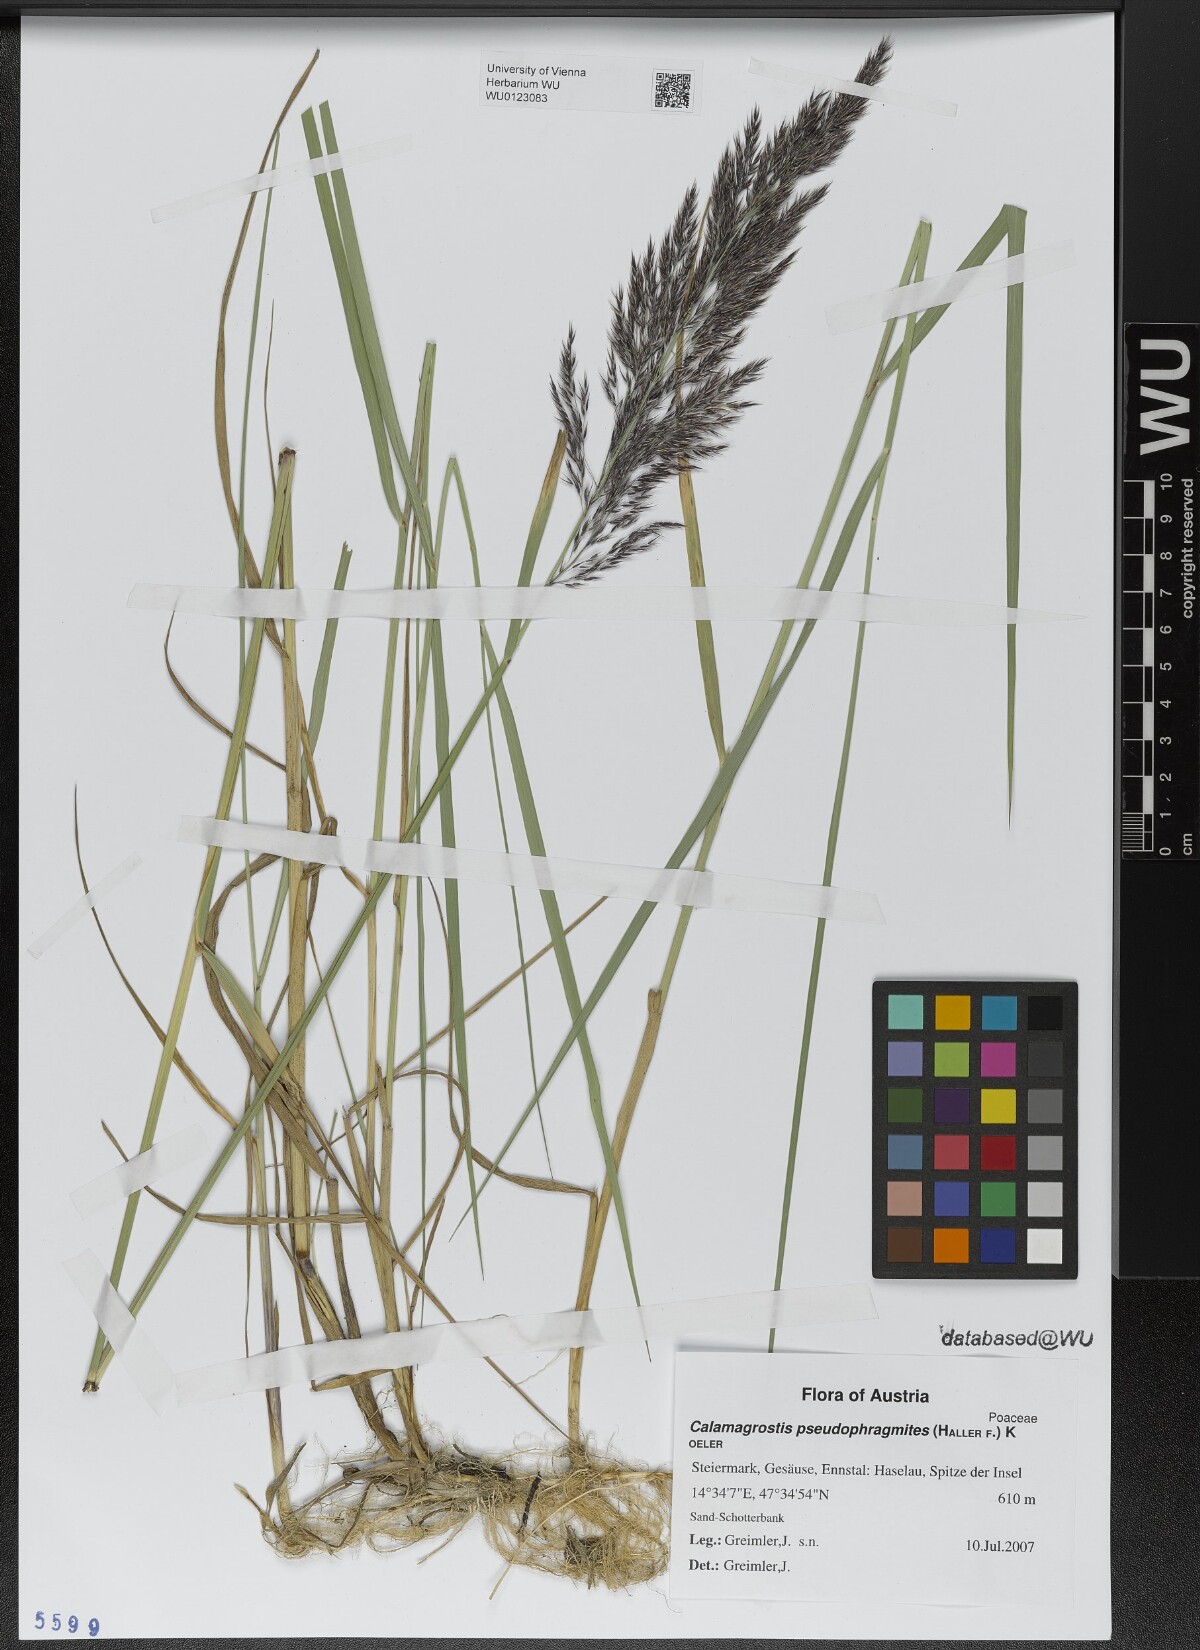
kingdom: Plantae
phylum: Tracheophyta
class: Liliopsida
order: Poales
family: Poaceae
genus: Calamagrostis
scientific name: Calamagrostis pseudophragmites
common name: Coastal small-reed
